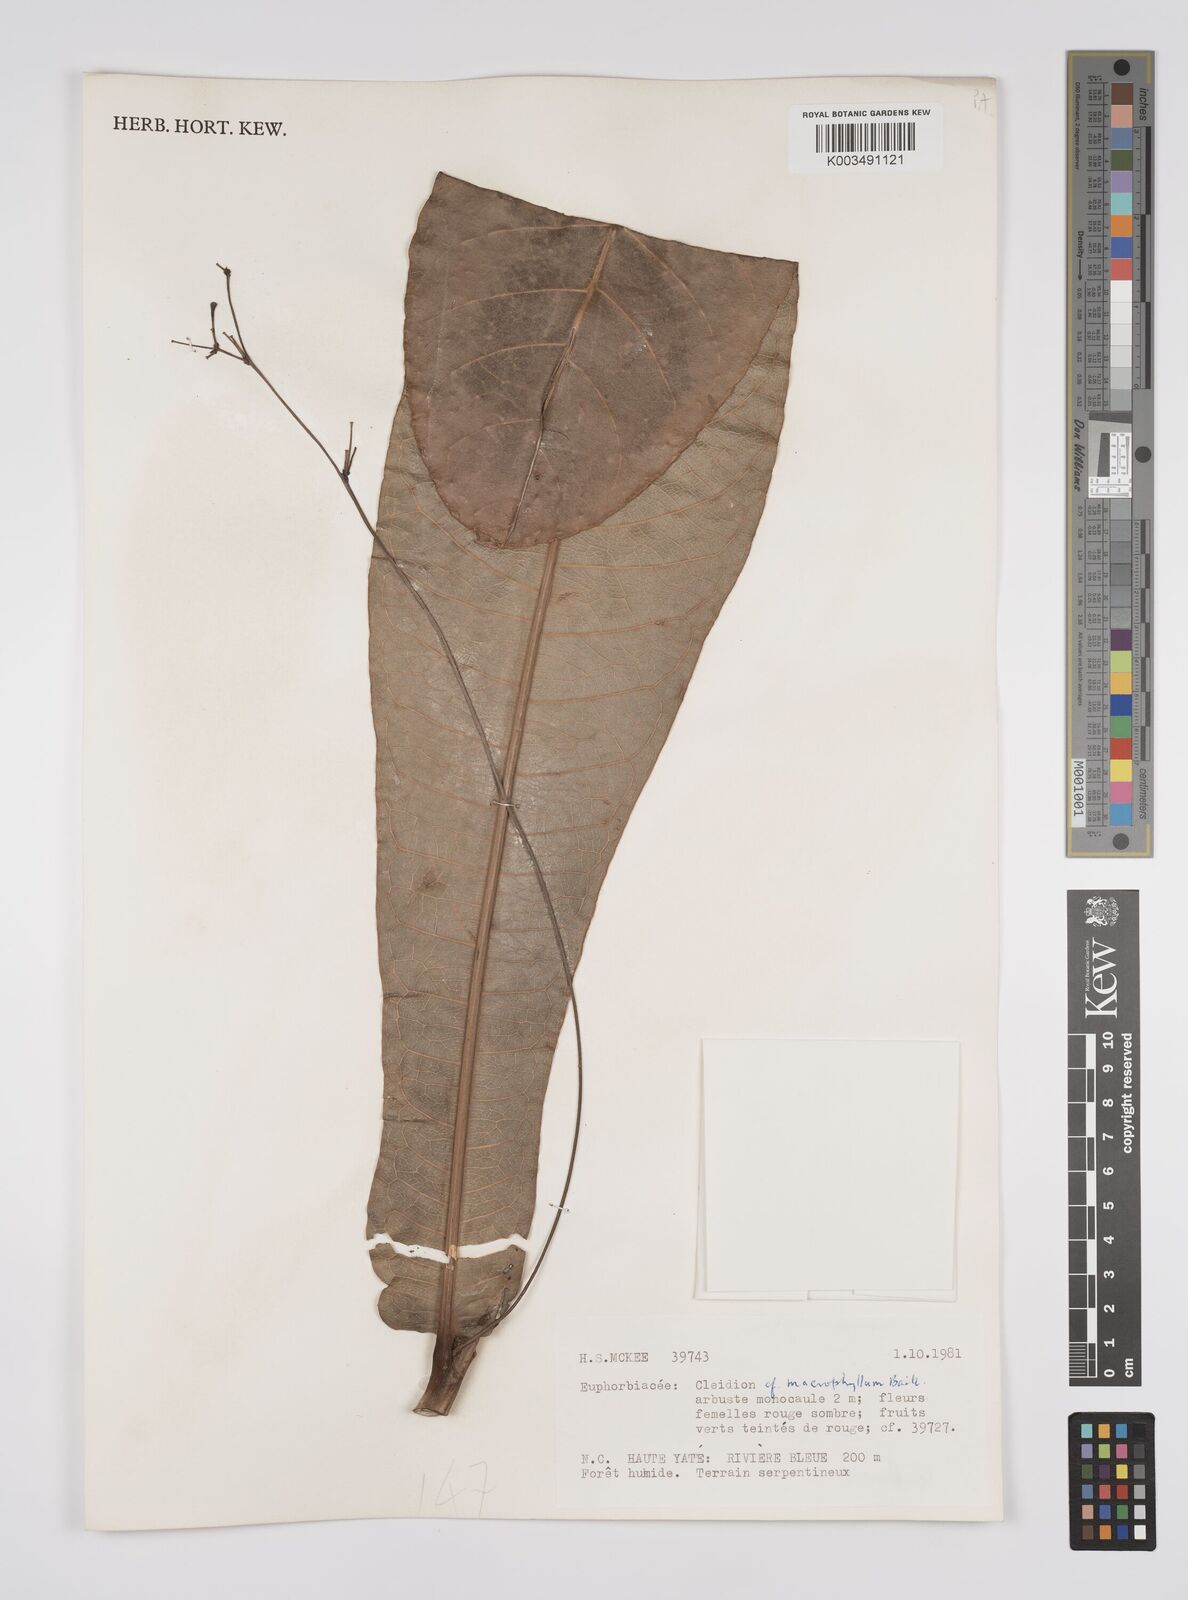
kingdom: Plantae
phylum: Tracheophyta
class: Magnoliopsida
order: Malpighiales
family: Euphorbiaceae
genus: Cleidion
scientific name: Cleidion macrophyllum
